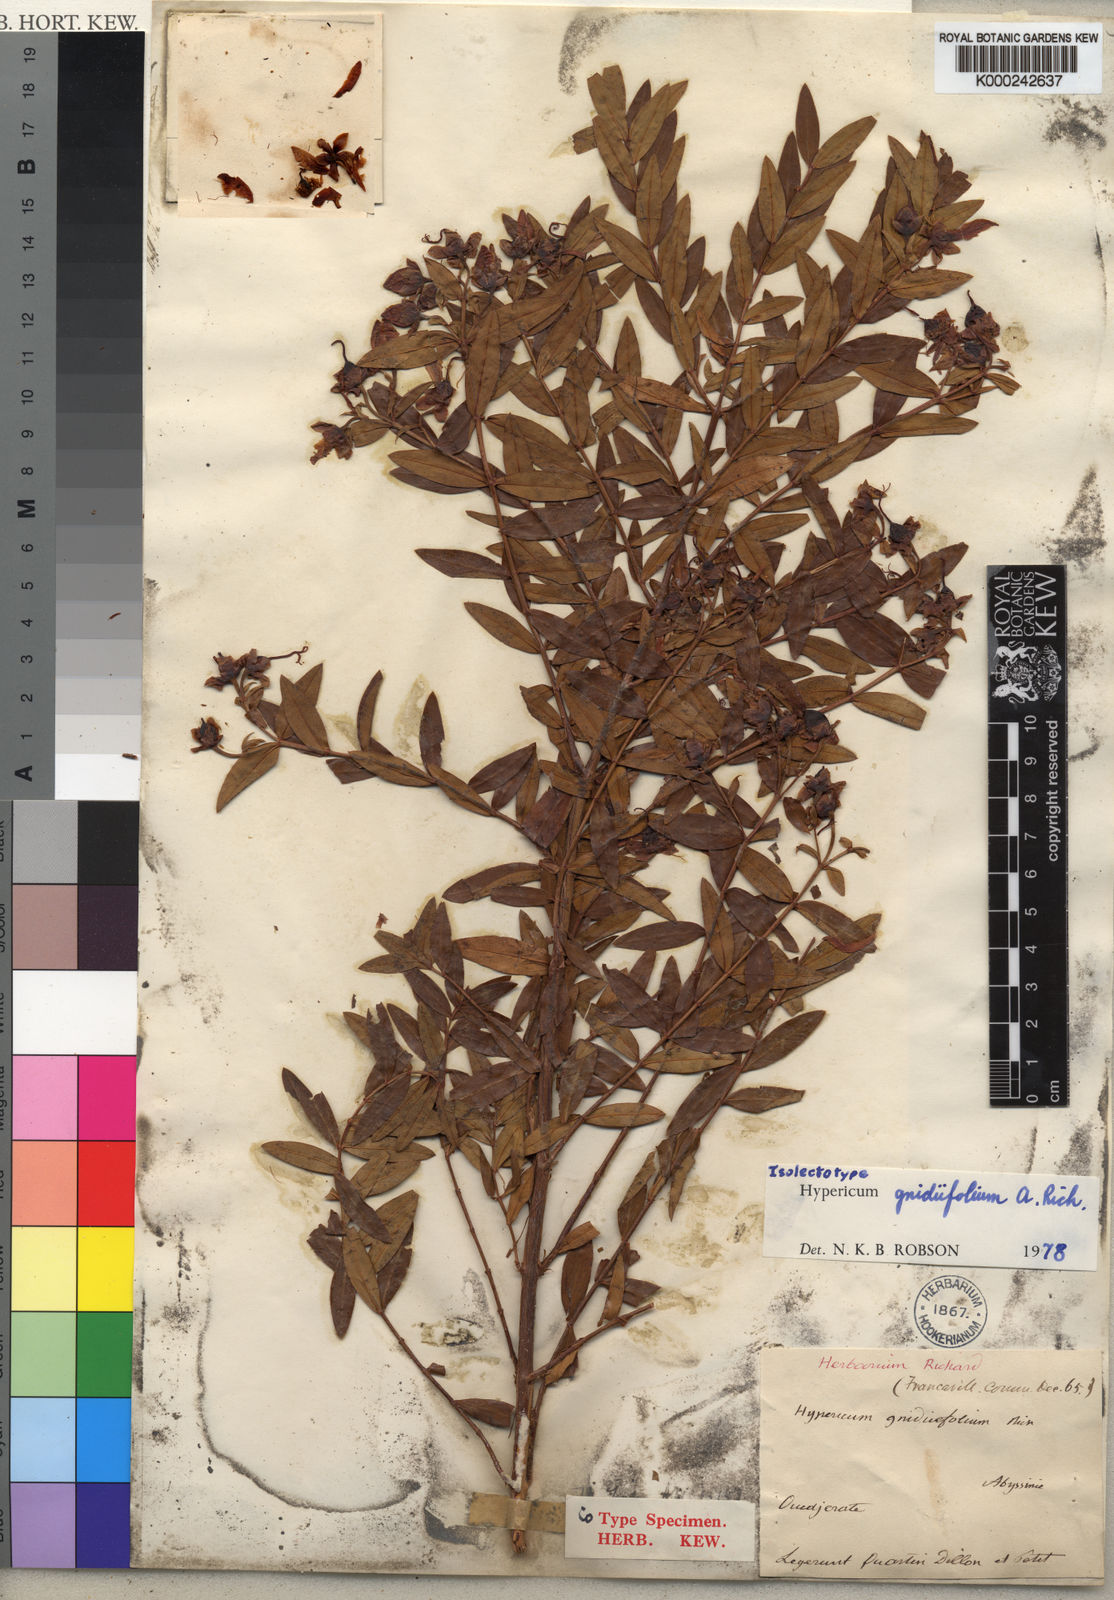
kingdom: Plantae
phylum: Tracheophyta
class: Magnoliopsida
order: Malpighiales
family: Hypericaceae
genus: Hypericum
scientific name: Hypericum
